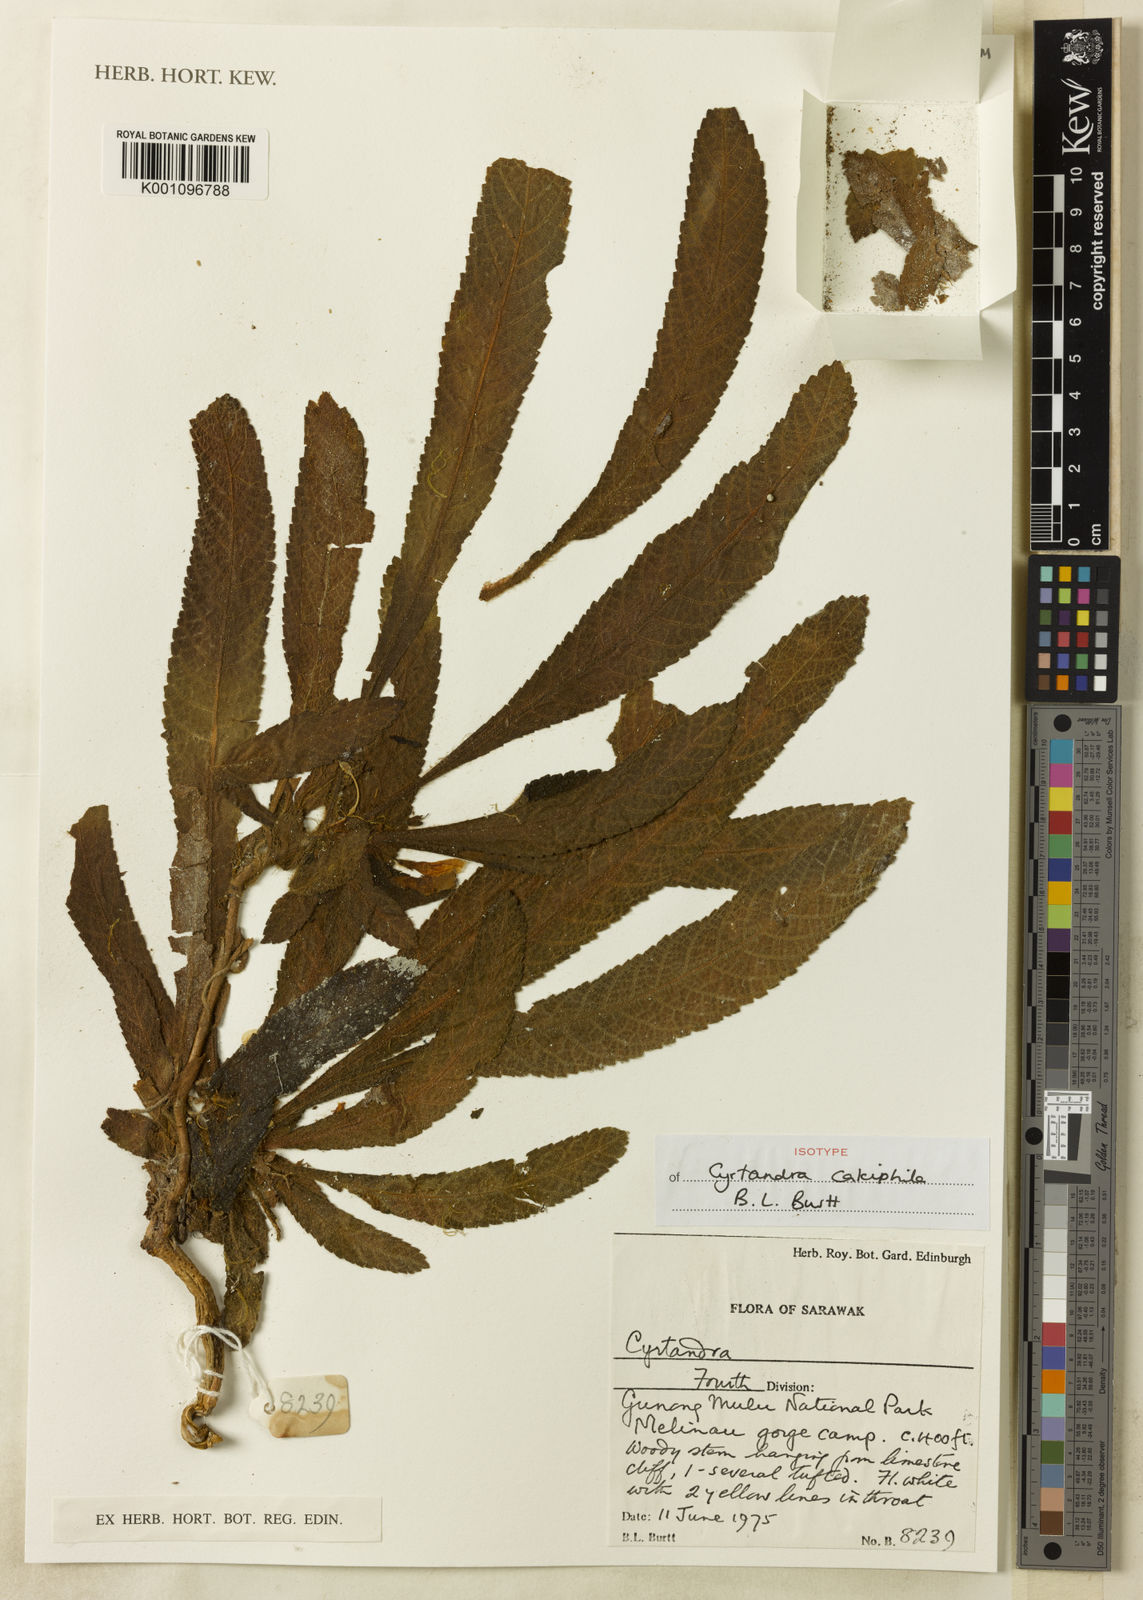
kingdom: Plantae
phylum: Tracheophyta
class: Magnoliopsida
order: Lamiales
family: Gesneriaceae
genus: Cyrtandra
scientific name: Cyrtandra calciphila
